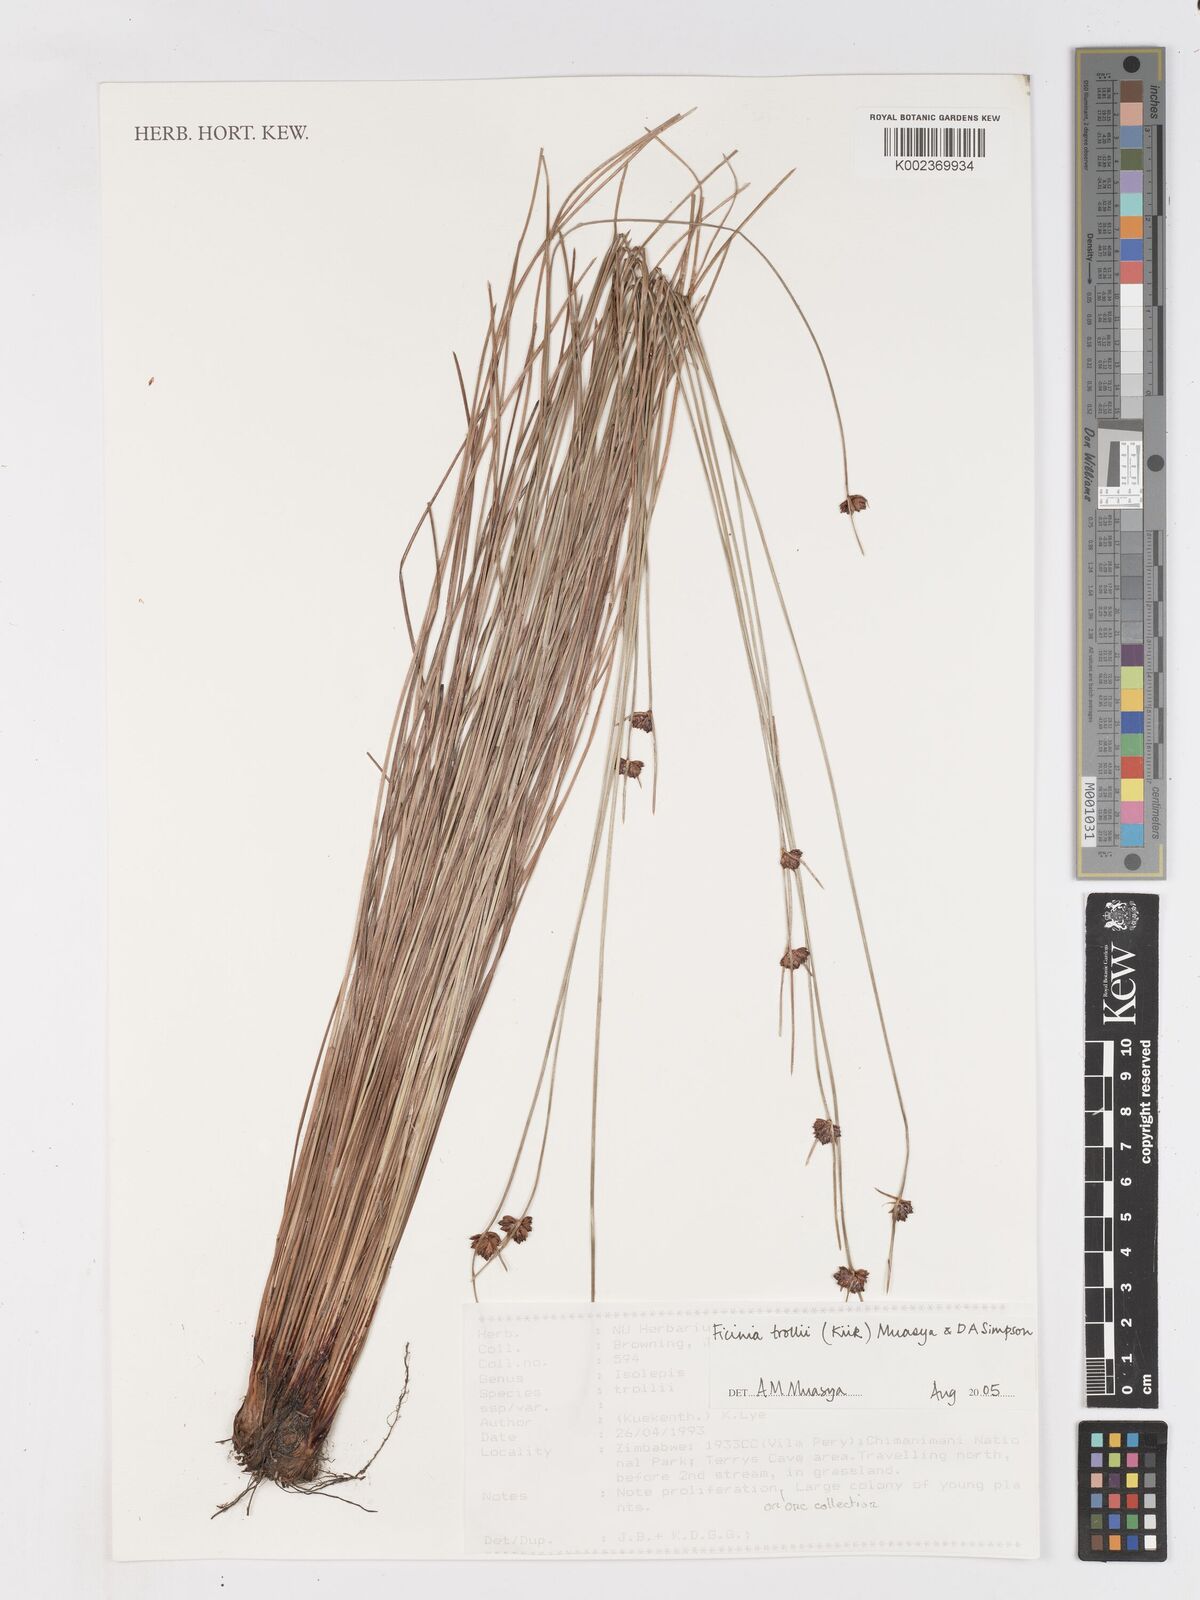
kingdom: Plantae
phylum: Tracheophyta
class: Liliopsida
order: Poales
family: Cyperaceae
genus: Ficinia
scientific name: Ficinia trollii
